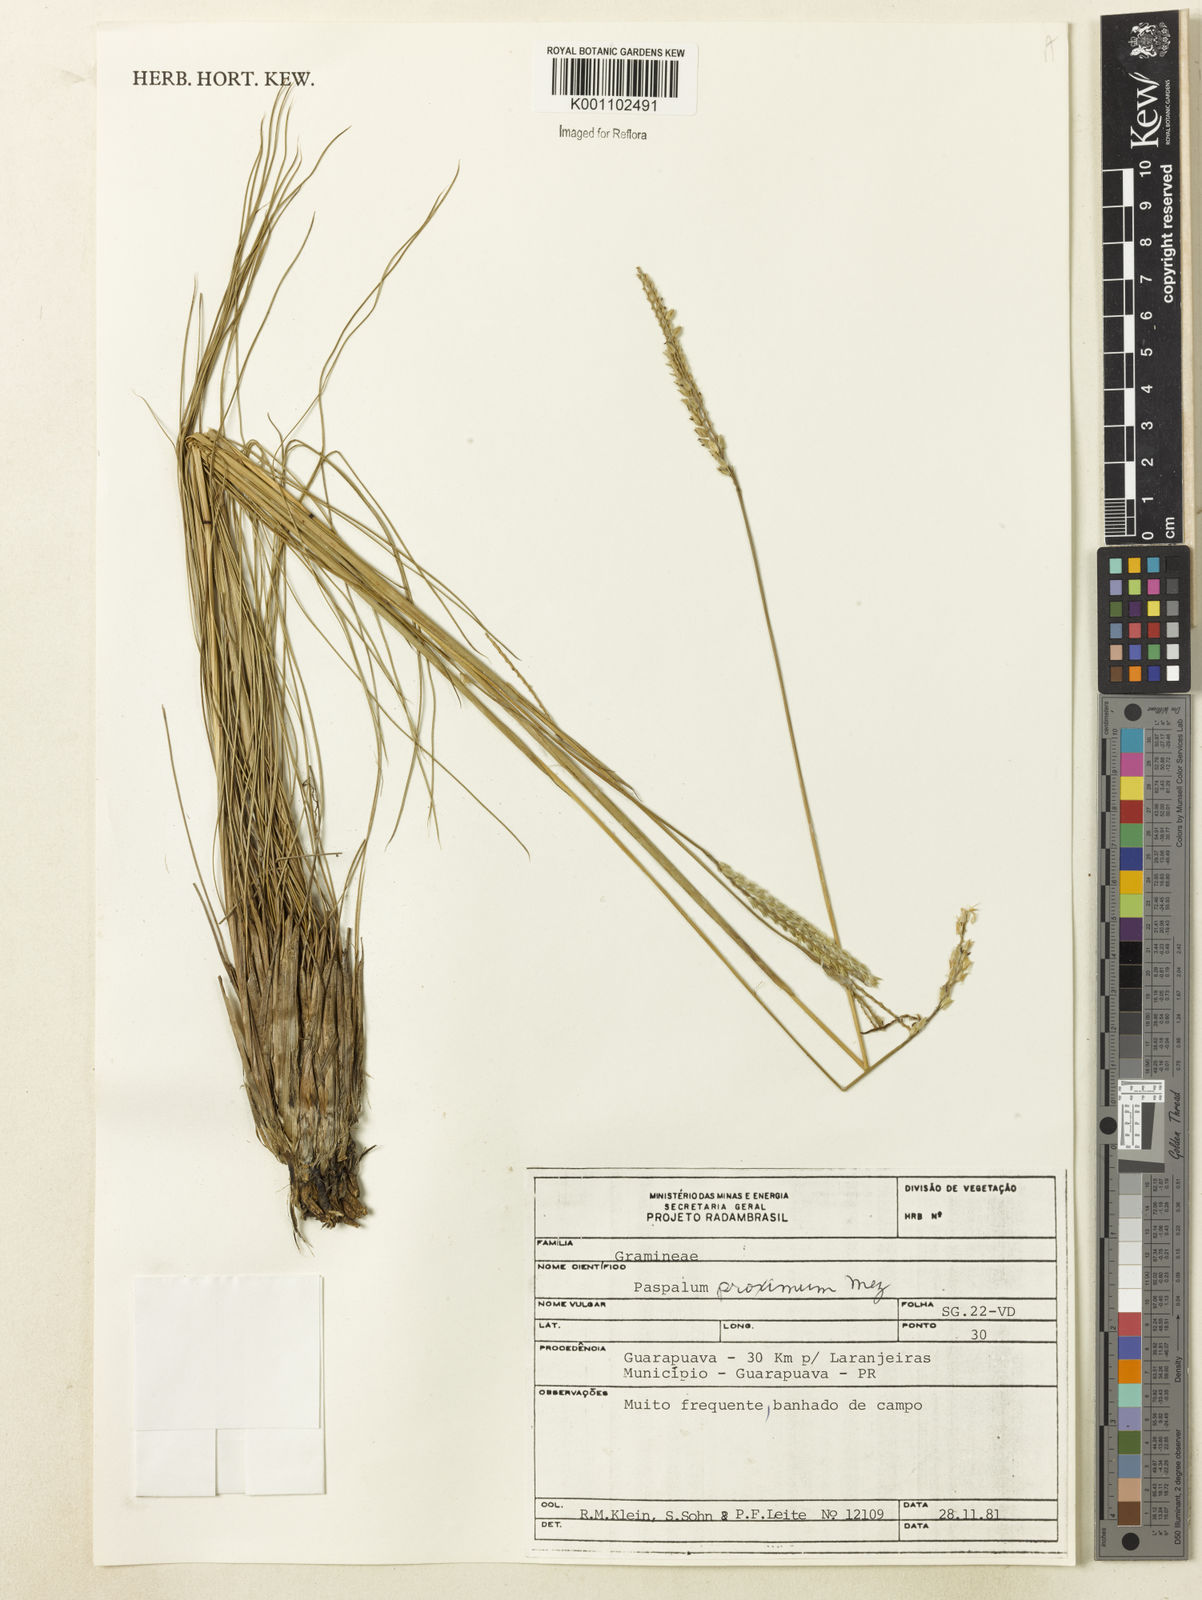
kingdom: Plantae
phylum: Tracheophyta
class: Liliopsida
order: Poales
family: Poaceae
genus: Paspalum
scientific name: Paspalum ellipticum
